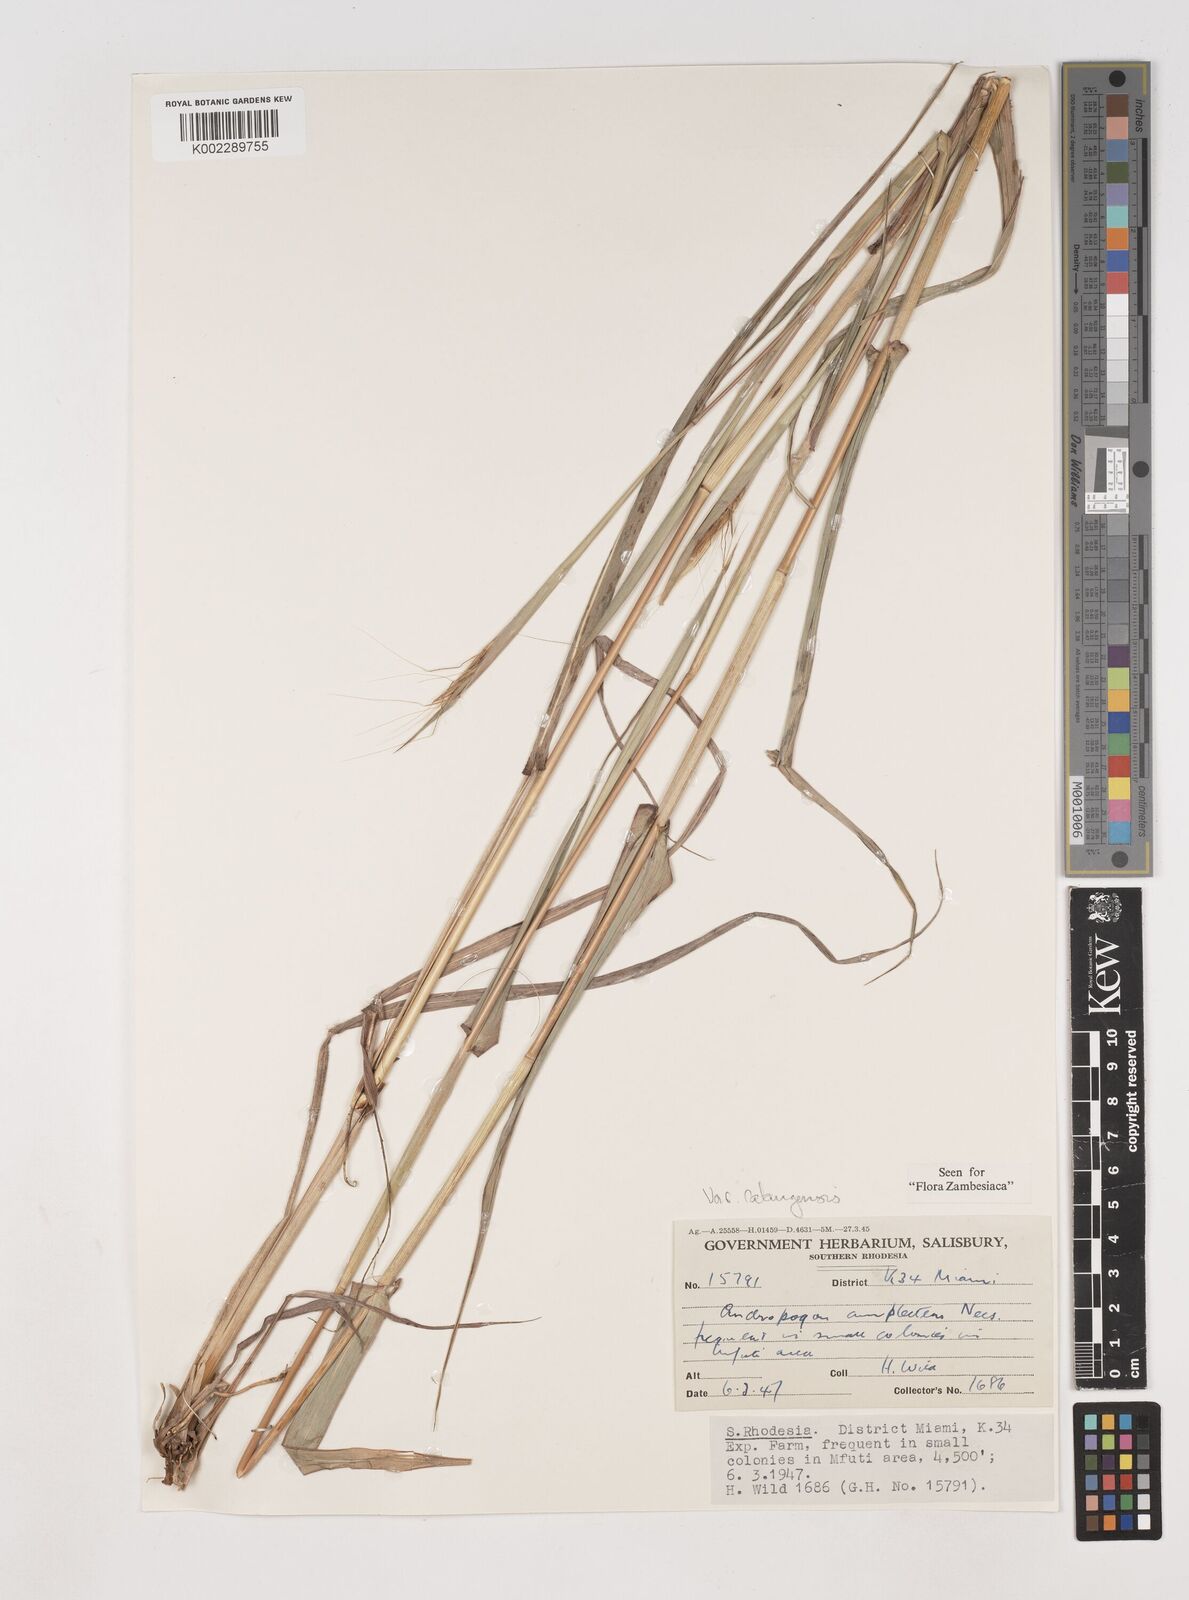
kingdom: Plantae
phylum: Tracheophyta
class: Liliopsida
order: Poales
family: Poaceae
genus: Diheteropogon
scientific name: Diheteropogon amplectens
